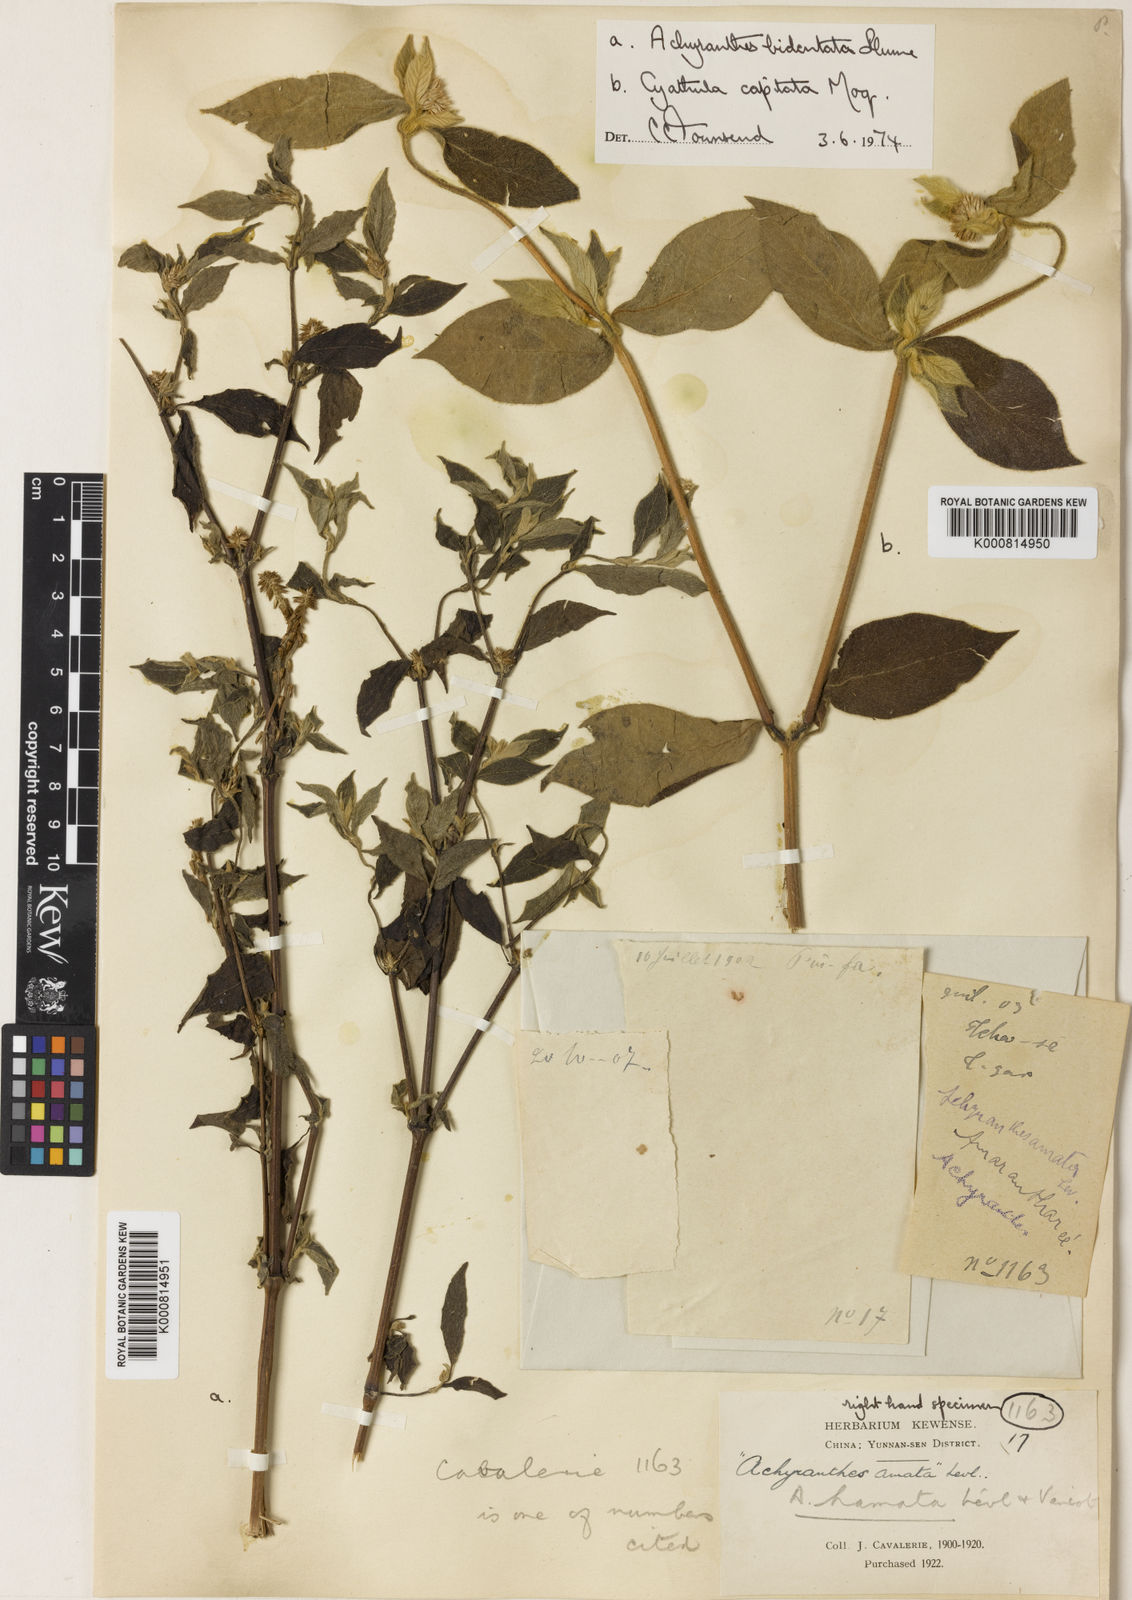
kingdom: Plantae
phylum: Tracheophyta
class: Magnoliopsida
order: Caryophyllales
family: Amaranthaceae
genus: Cyathula
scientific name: Cyathula capitata
